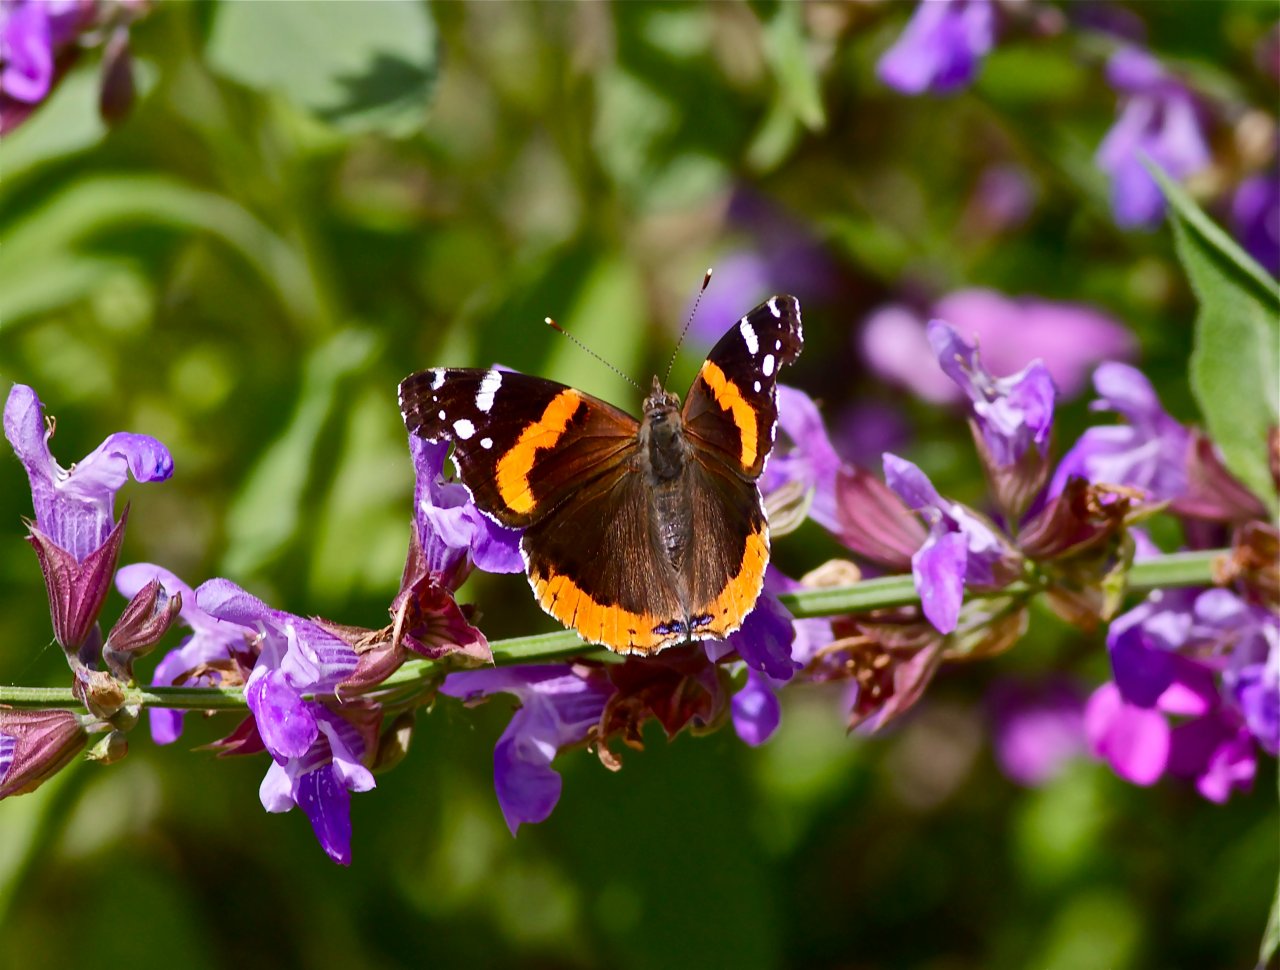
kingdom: Animalia
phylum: Arthropoda
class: Insecta
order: Lepidoptera
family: Nymphalidae
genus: Vanessa
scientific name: Vanessa atalanta
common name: Red Admiral
